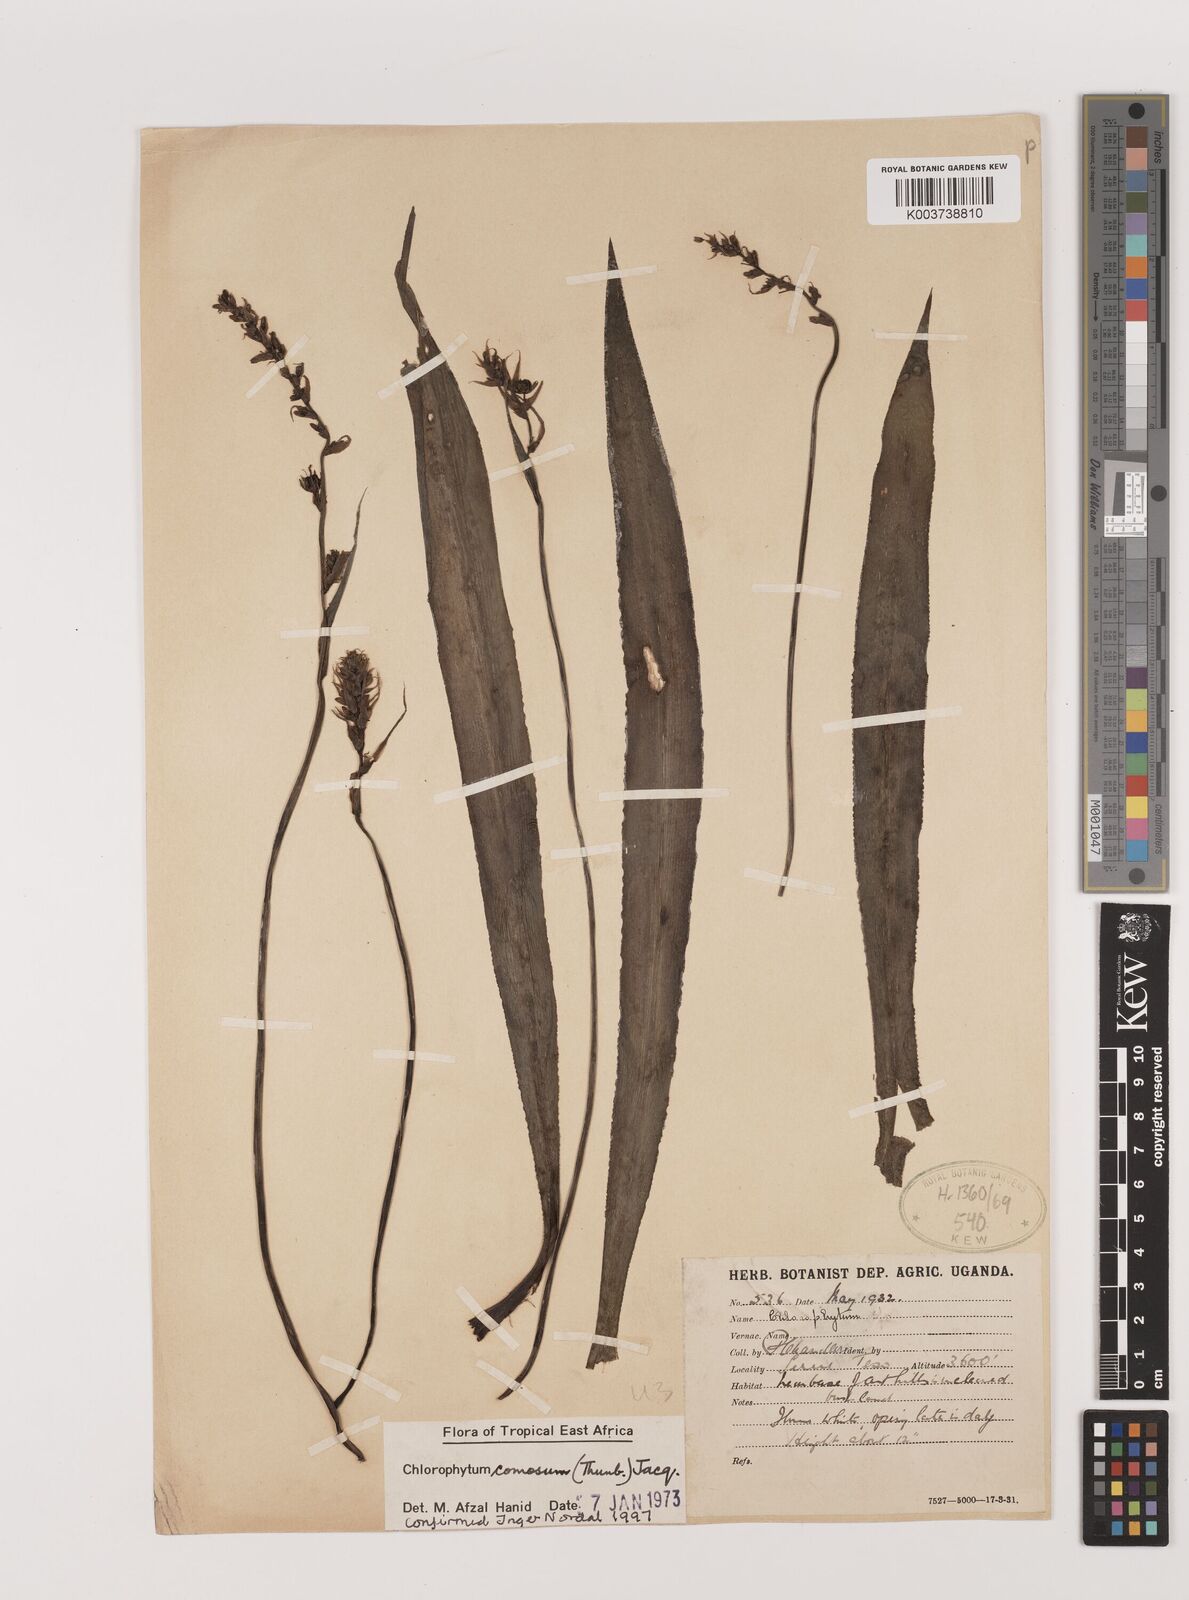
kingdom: Plantae
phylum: Tracheophyta
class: Liliopsida
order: Asparagales
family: Asparagaceae
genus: Chlorophytum
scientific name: Chlorophytum comosum
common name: Spider plant
